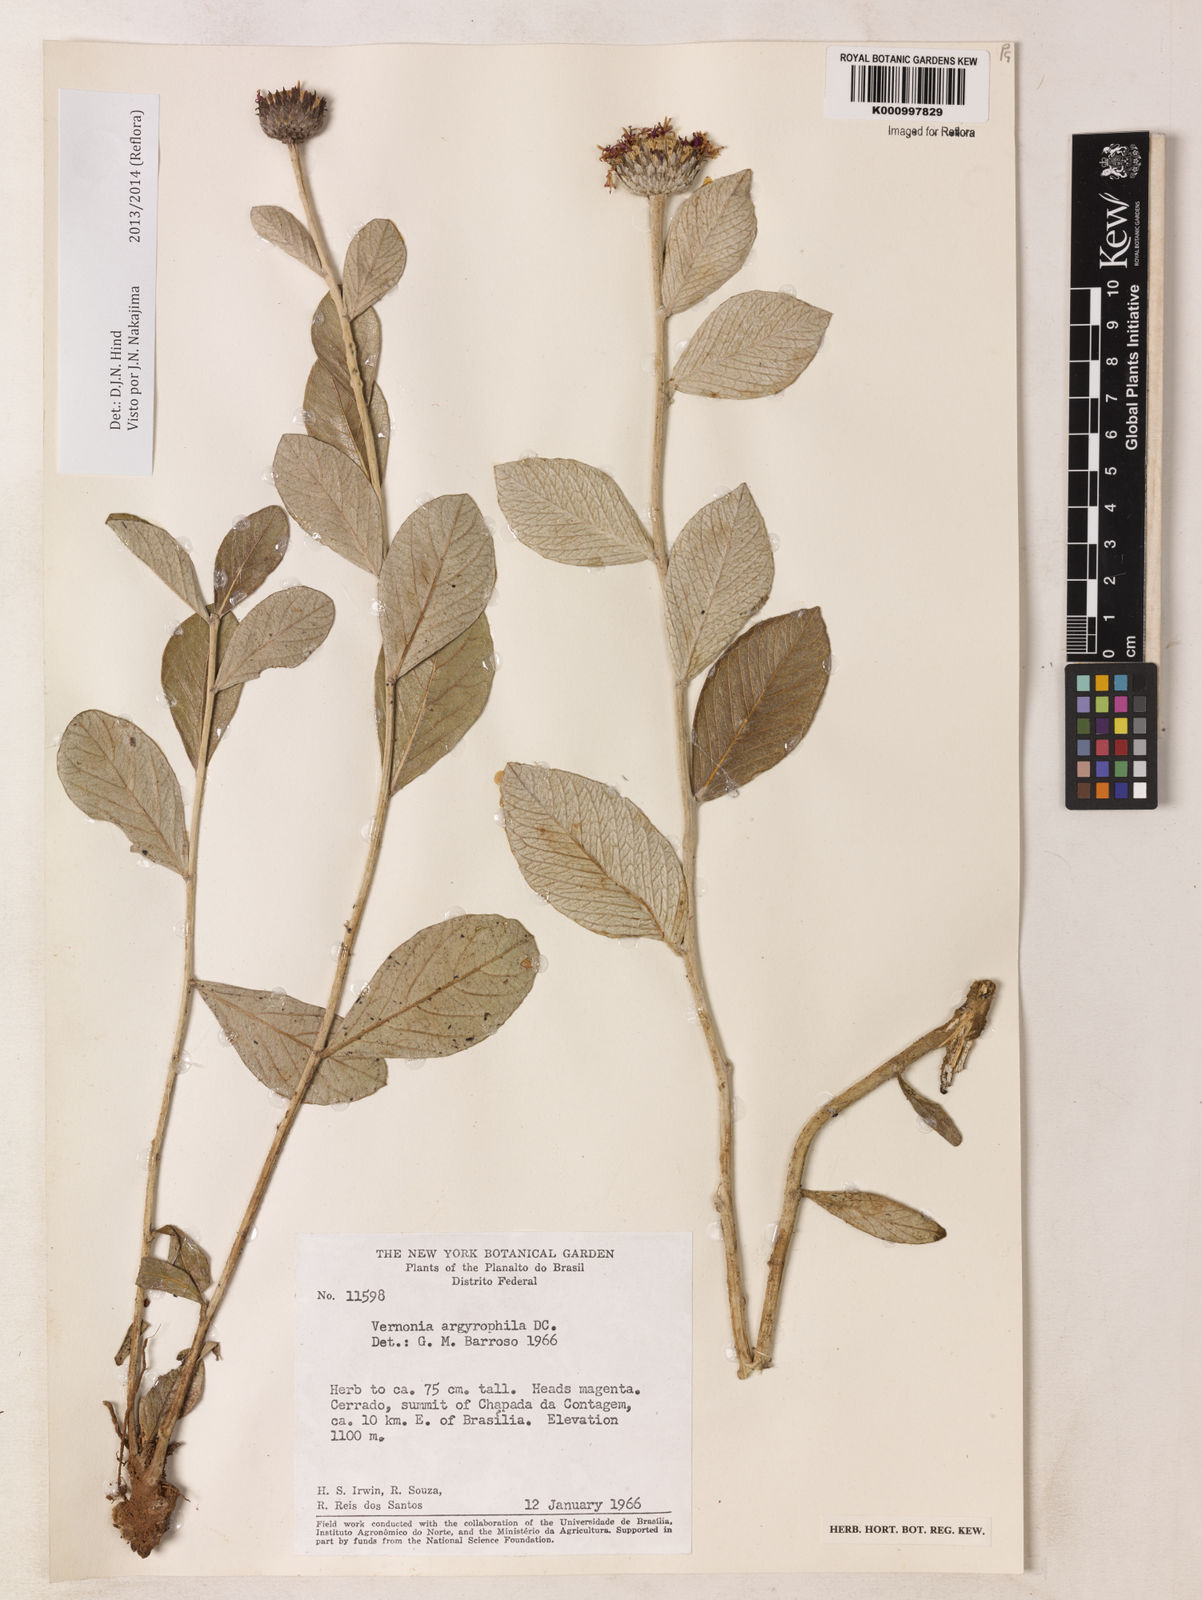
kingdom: Plantae
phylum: Tracheophyta
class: Magnoliopsida
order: Asterales
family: Asteraceae
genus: Lessingianthus
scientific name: Lessingianthus argyrophyllus
